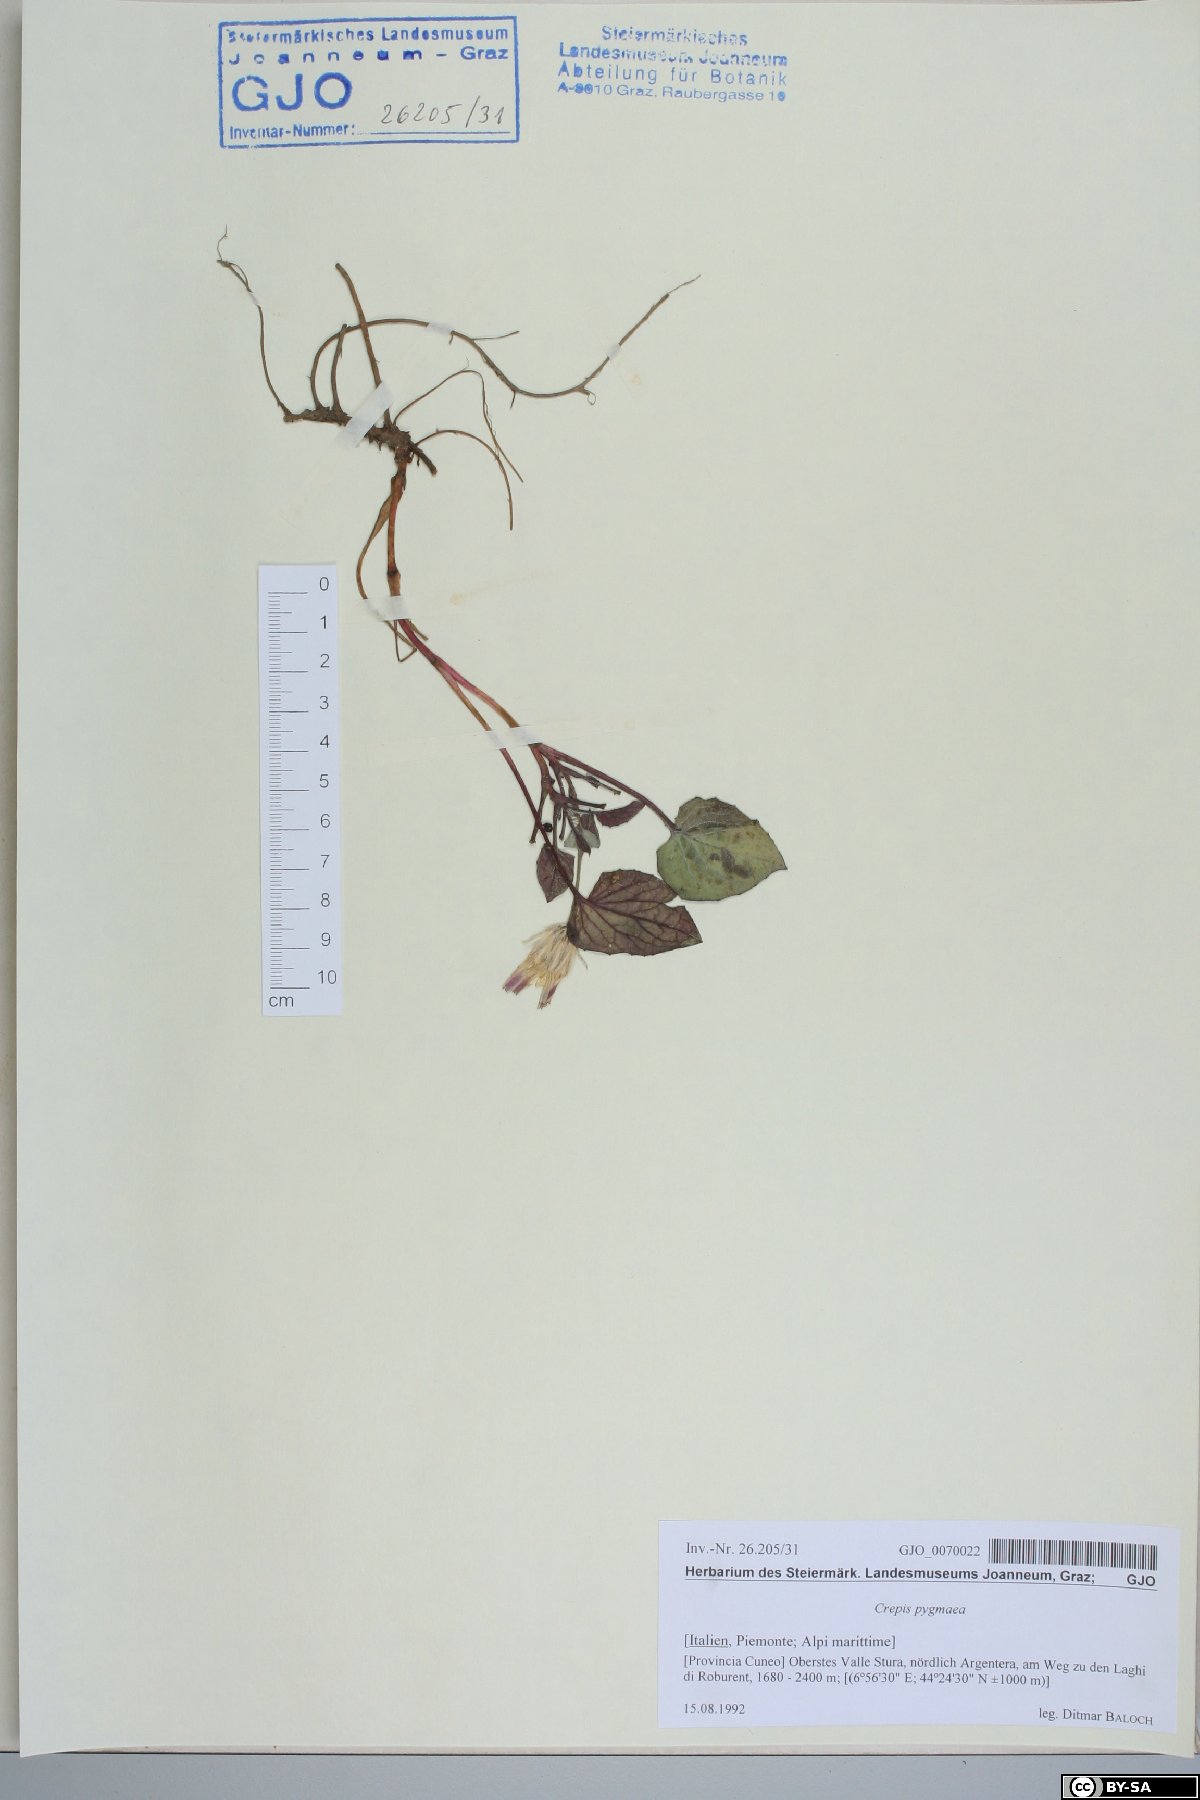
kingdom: Plantae
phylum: Tracheophyta
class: Magnoliopsida
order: Asterales
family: Asteraceae
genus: Crepis
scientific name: Crepis pygmaea
